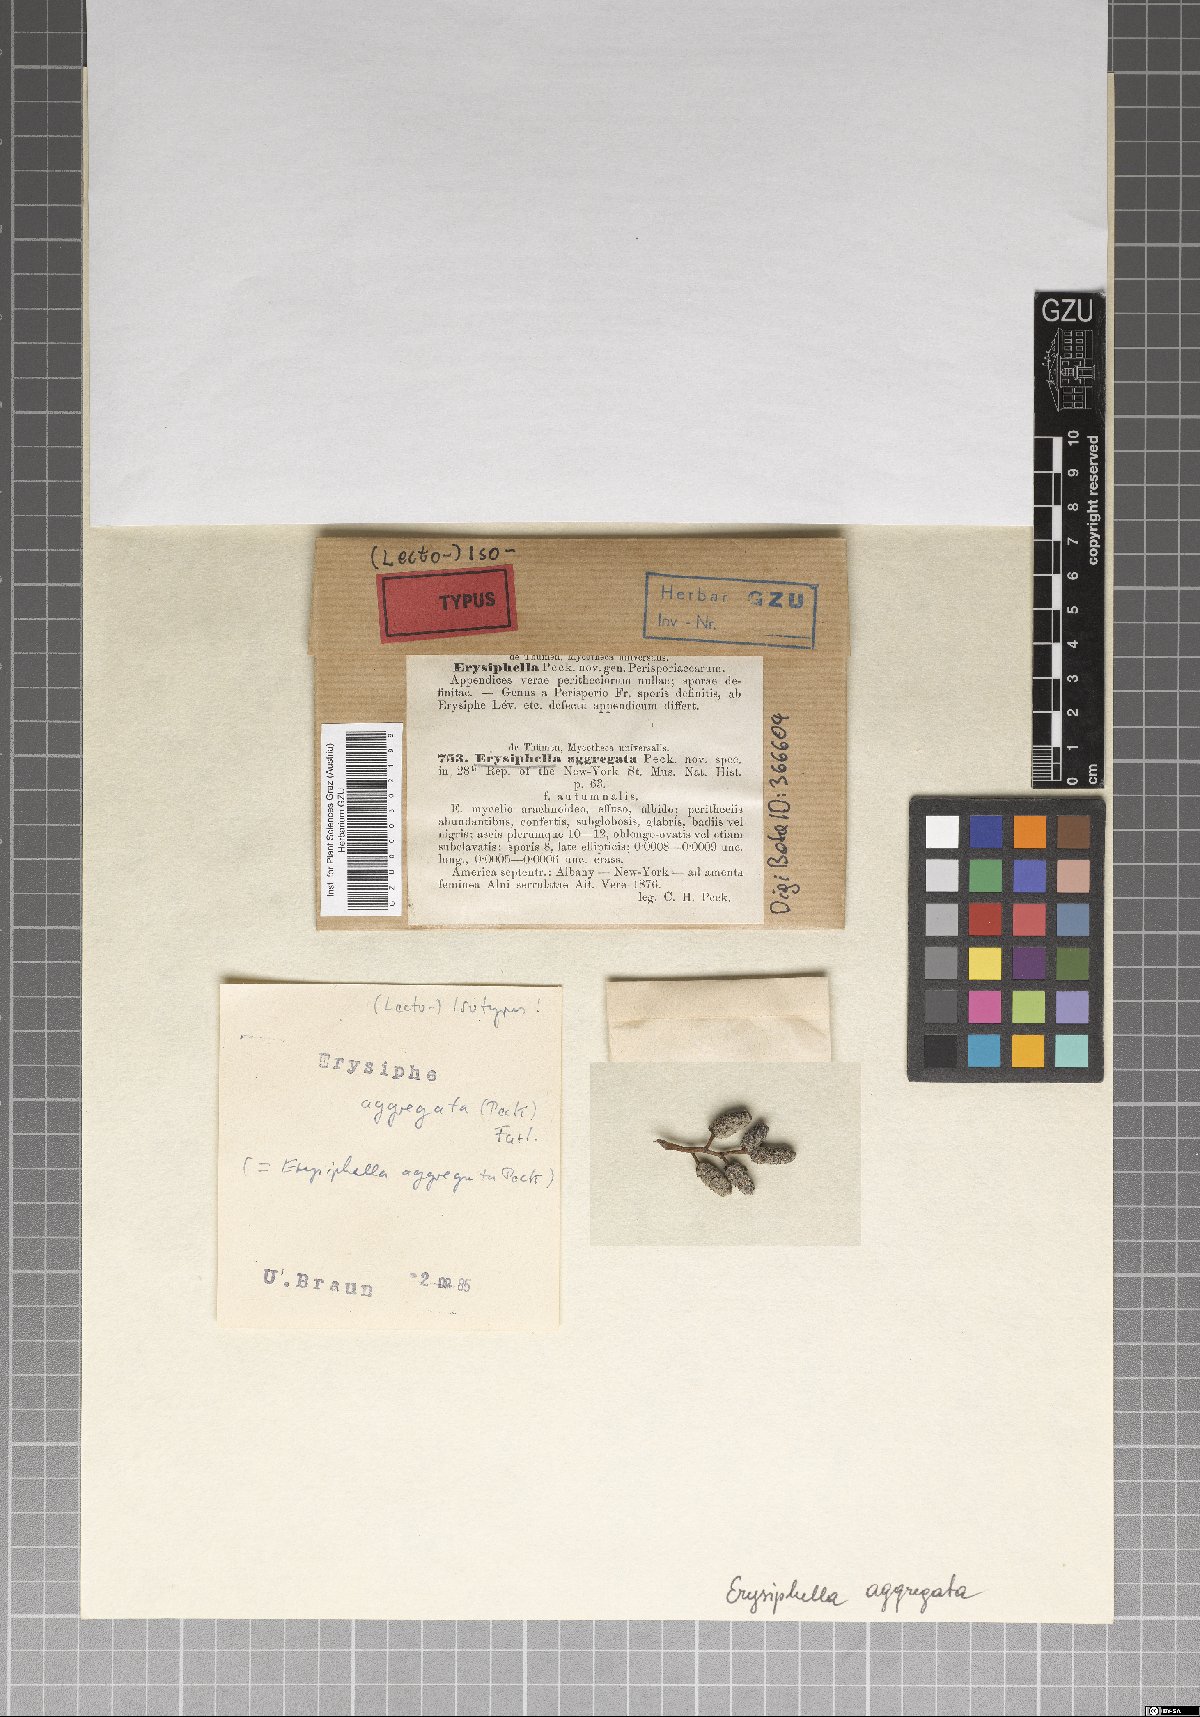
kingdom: Fungi
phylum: Ascomycota
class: Leotiomycetes
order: Helotiales
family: Erysiphaceae
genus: Erysiphe
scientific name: Erysiphe
